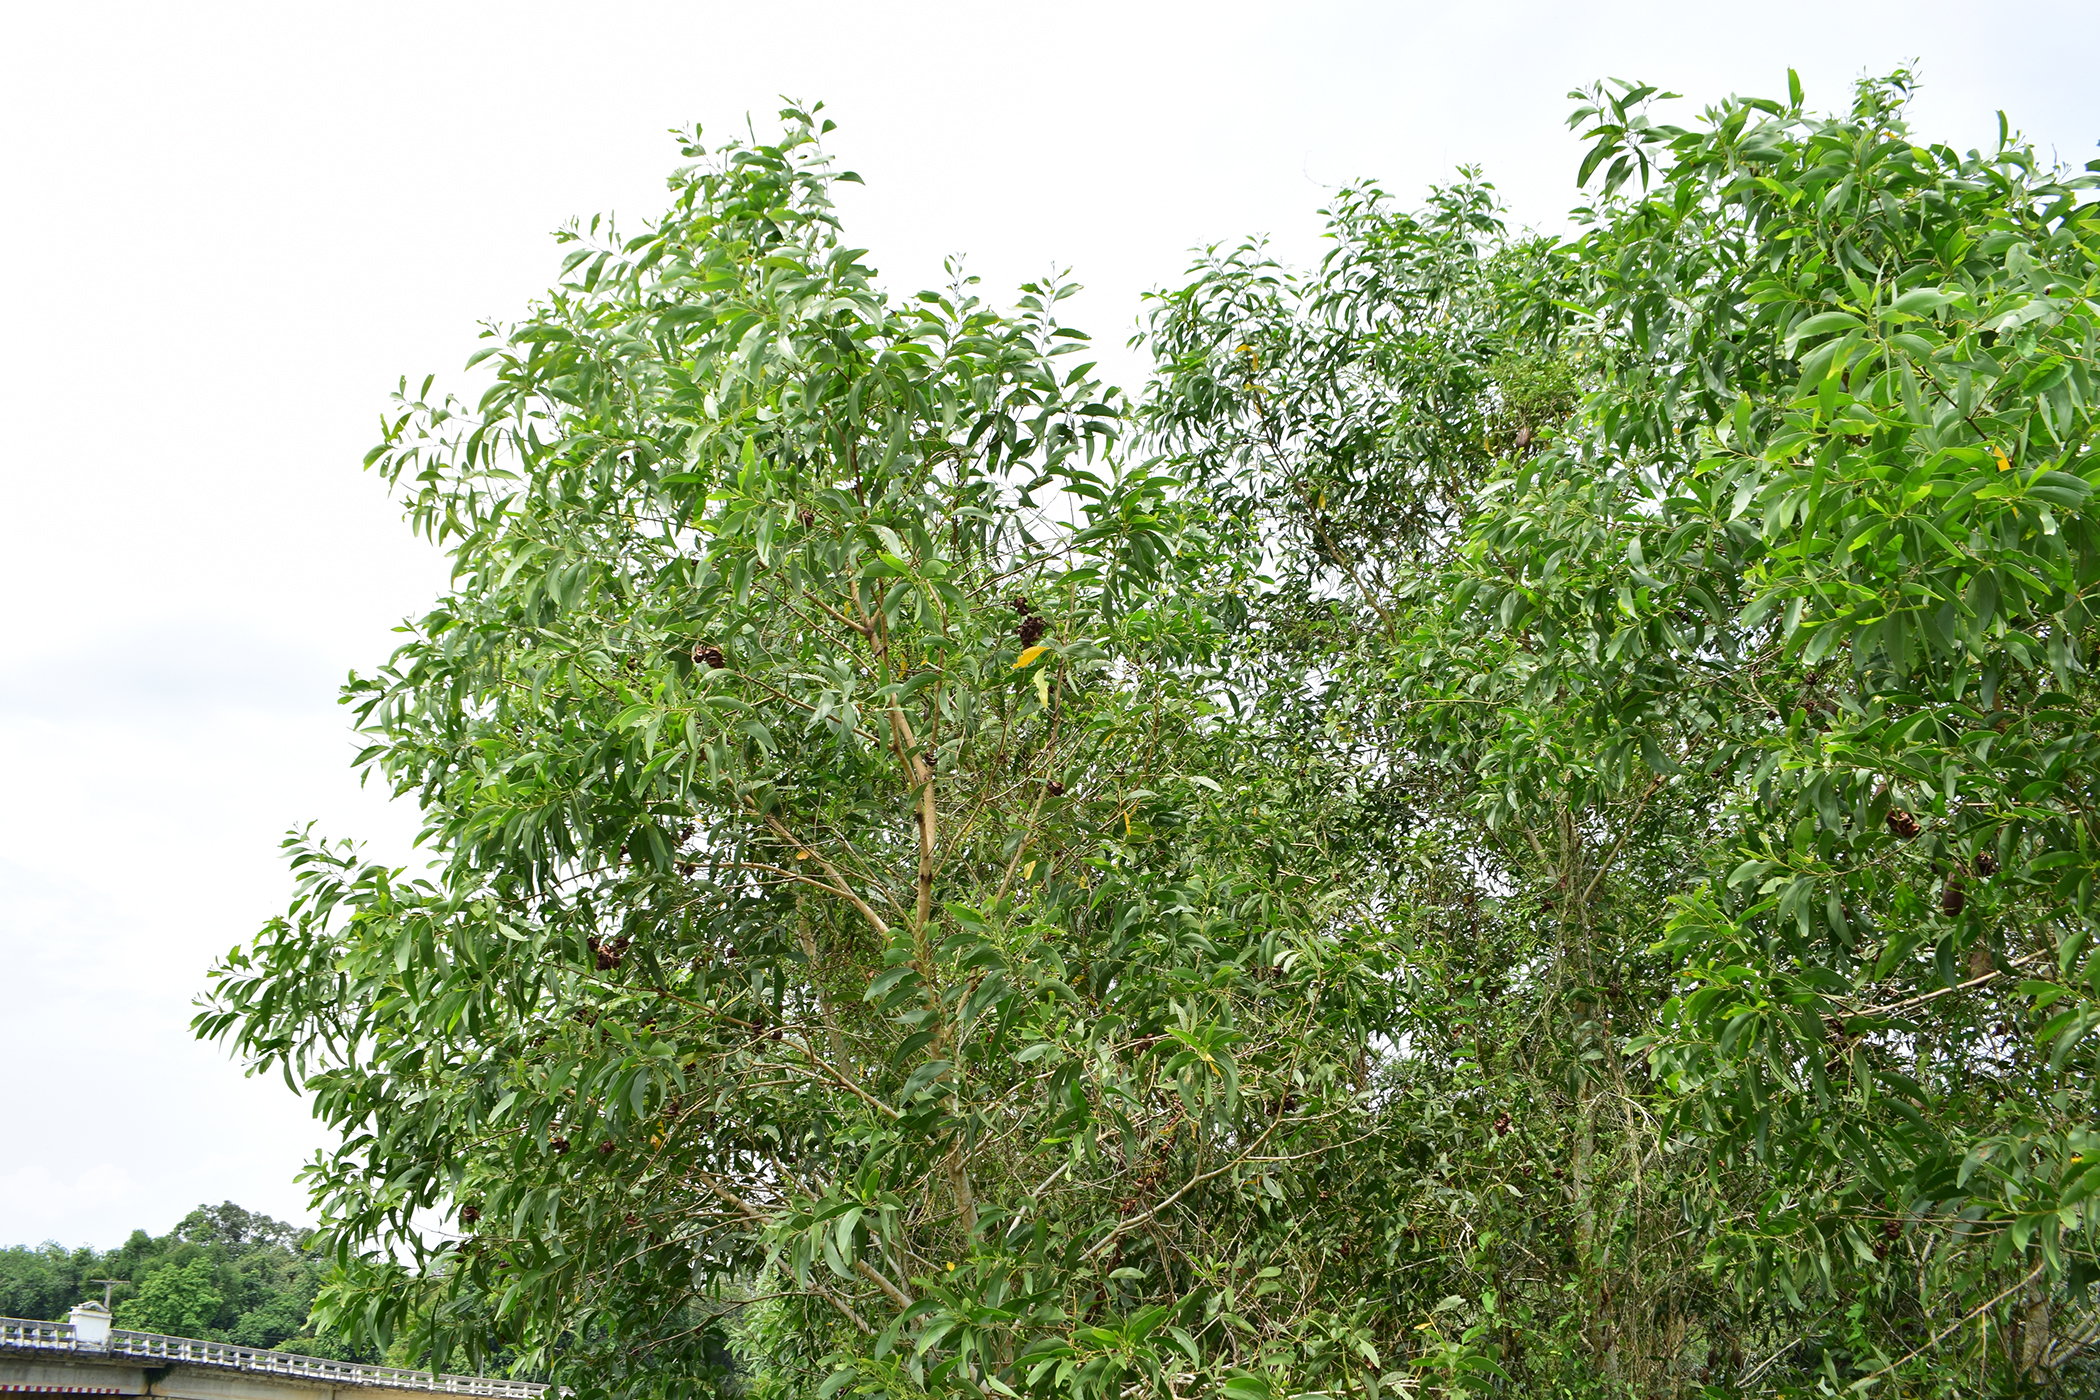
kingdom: Plantae
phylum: Tracheophyta
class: Magnoliopsida
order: Fabales
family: Fabaceae
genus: Acacia
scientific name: Acacia auriculiformis
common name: Earleaf acacia
